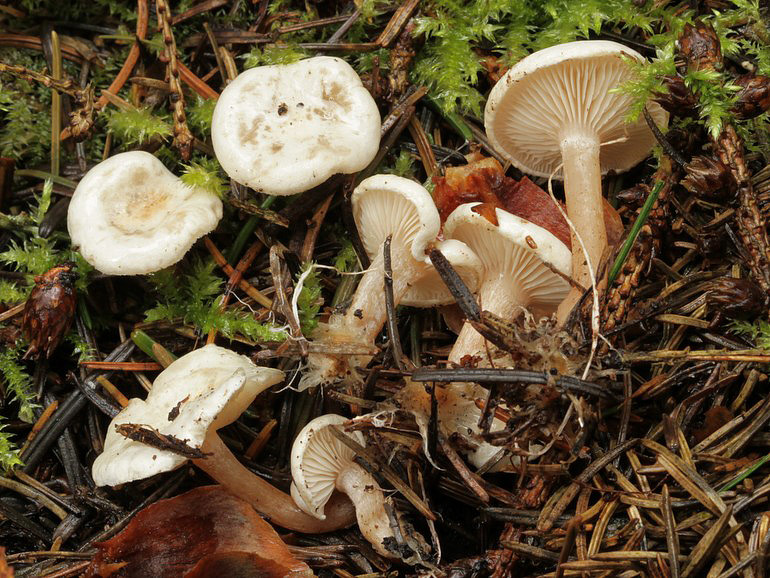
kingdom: Fungi
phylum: Basidiomycota
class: Agaricomycetes
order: Agaricales
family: Tricholomataceae
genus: Ripartites
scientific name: Ripartites tricholoma
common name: almindelig skæghat
